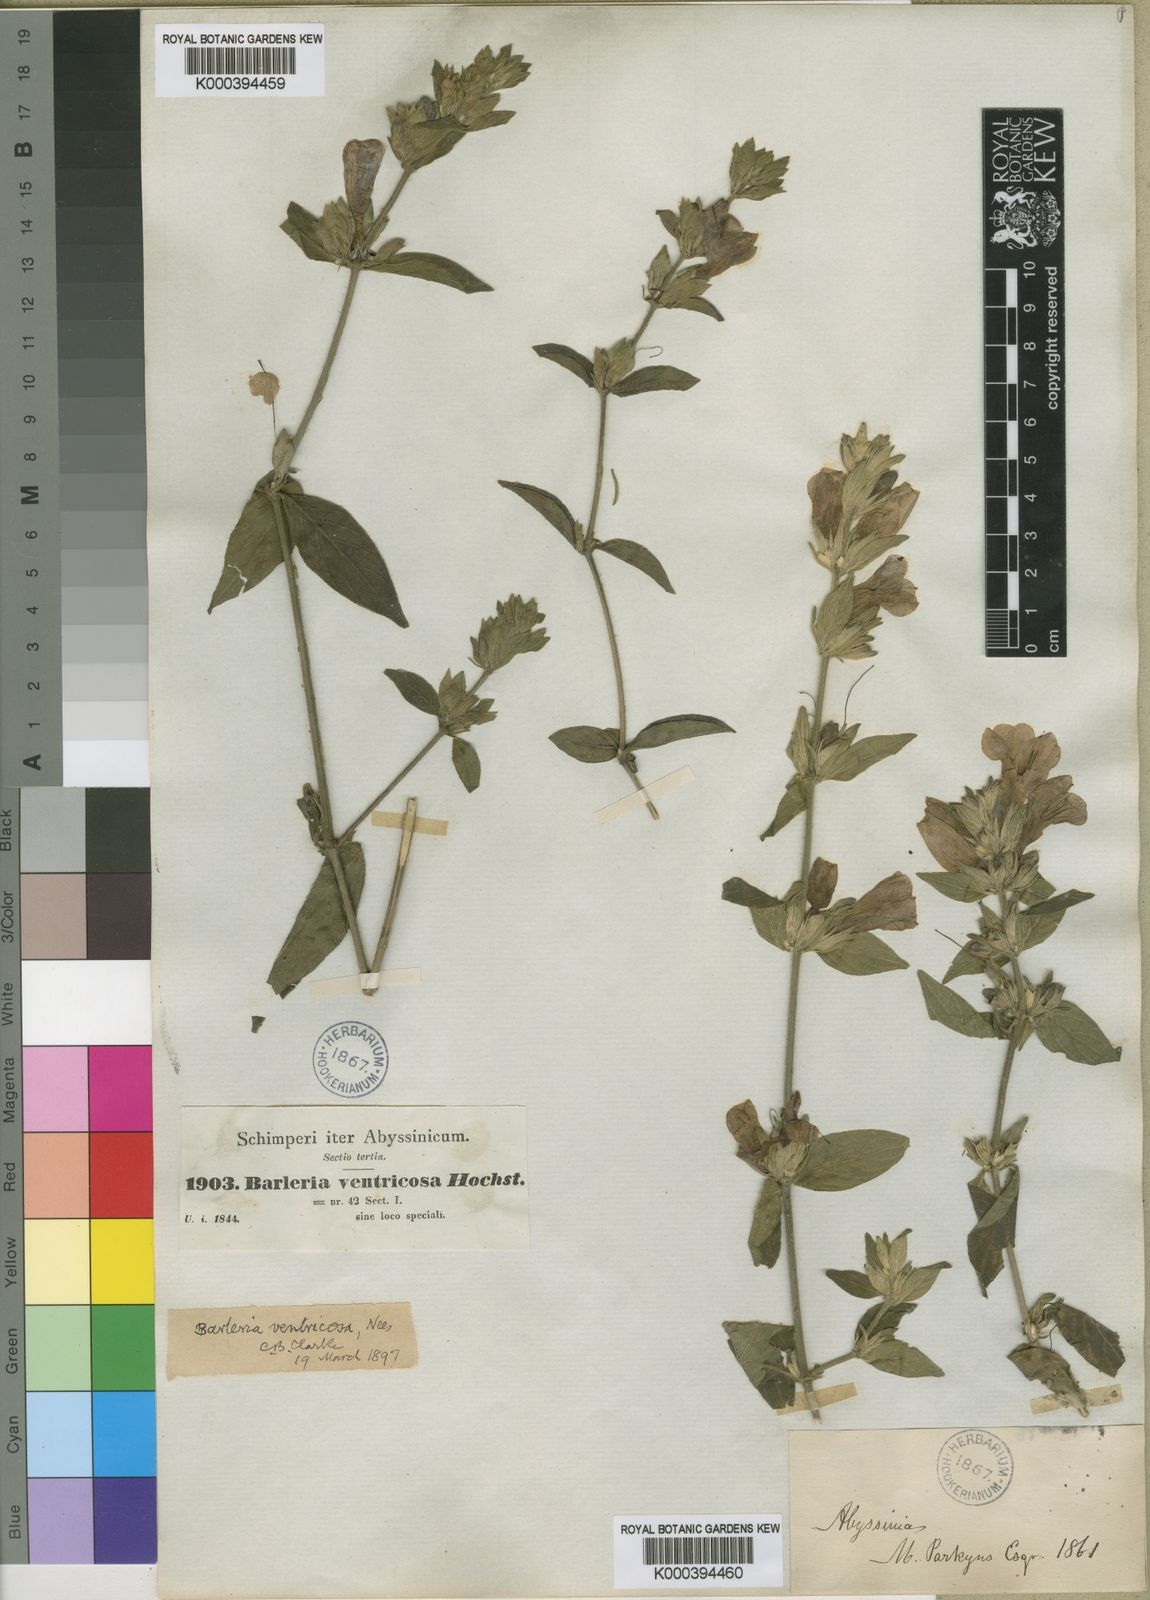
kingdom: Plantae
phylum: Tracheophyta
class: Magnoliopsida
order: Lamiales
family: Acanthaceae
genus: Barleria
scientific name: Barleria ventricosa
